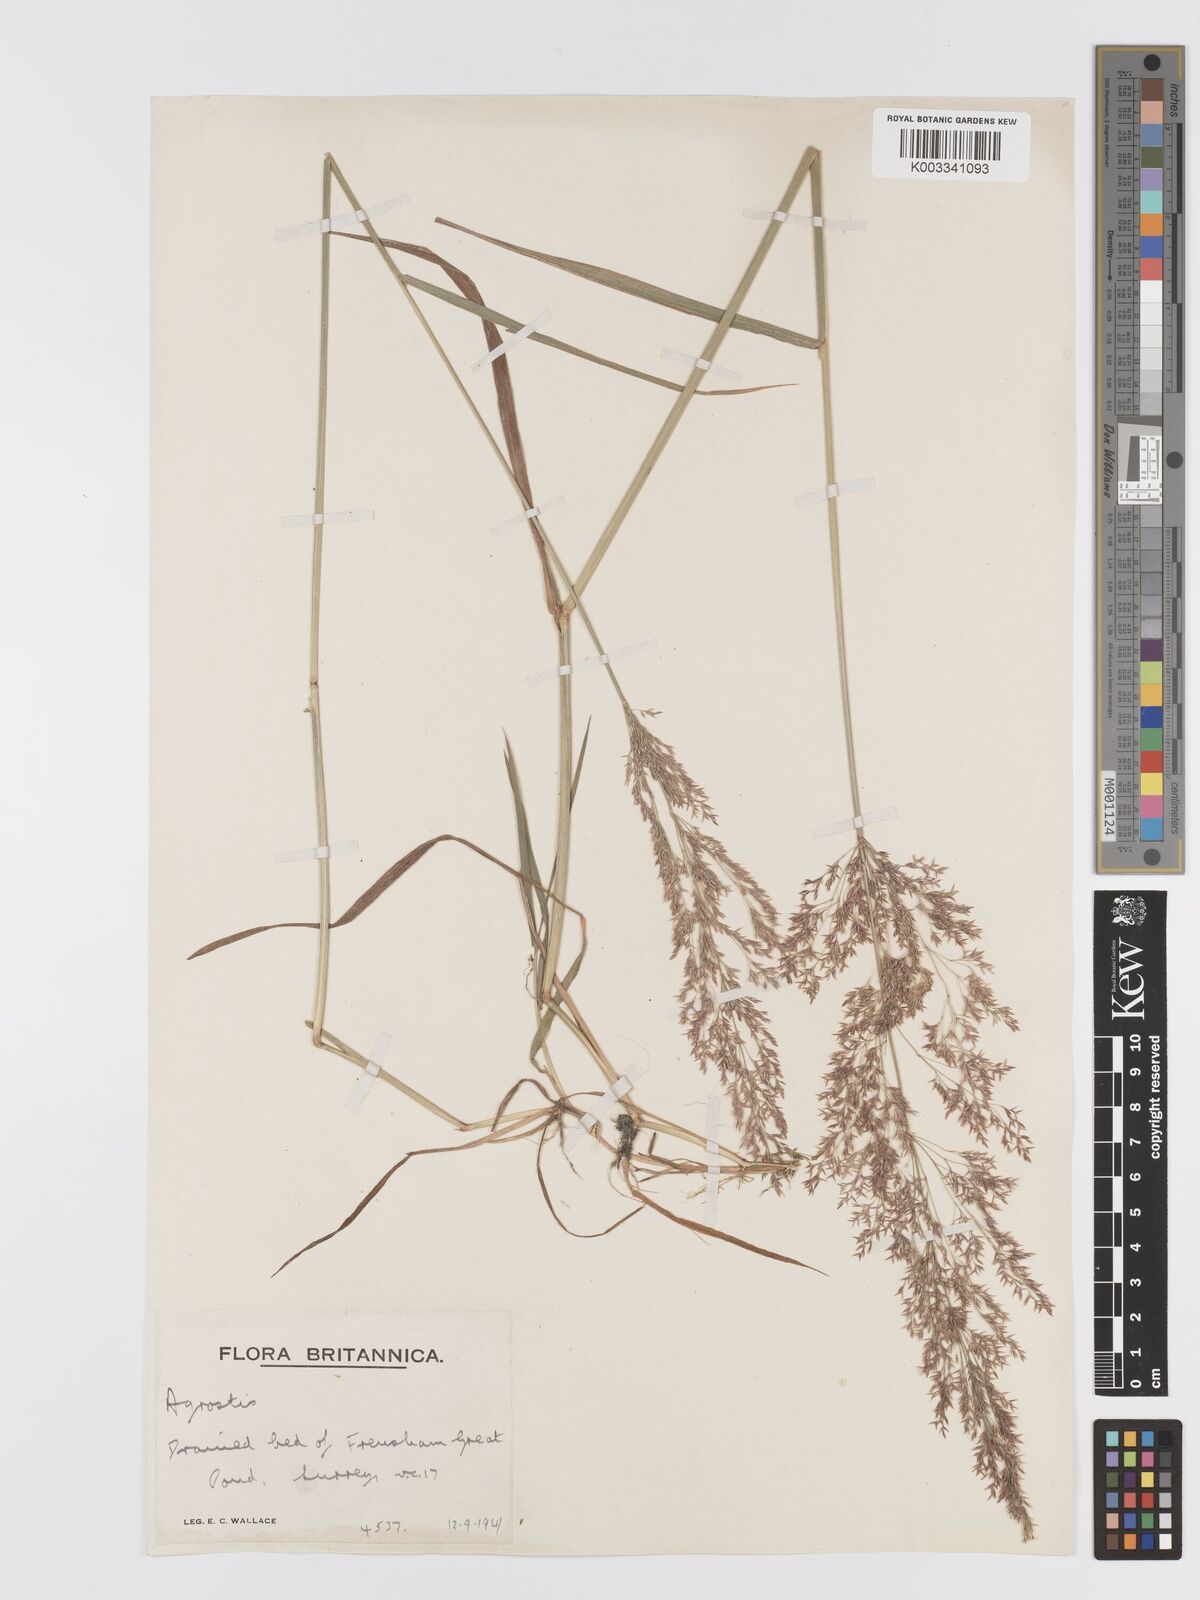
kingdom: Plantae
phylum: Tracheophyta
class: Liliopsida
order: Poales
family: Poaceae
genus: Agrostis
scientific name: Agrostis gigantea
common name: Black bent
